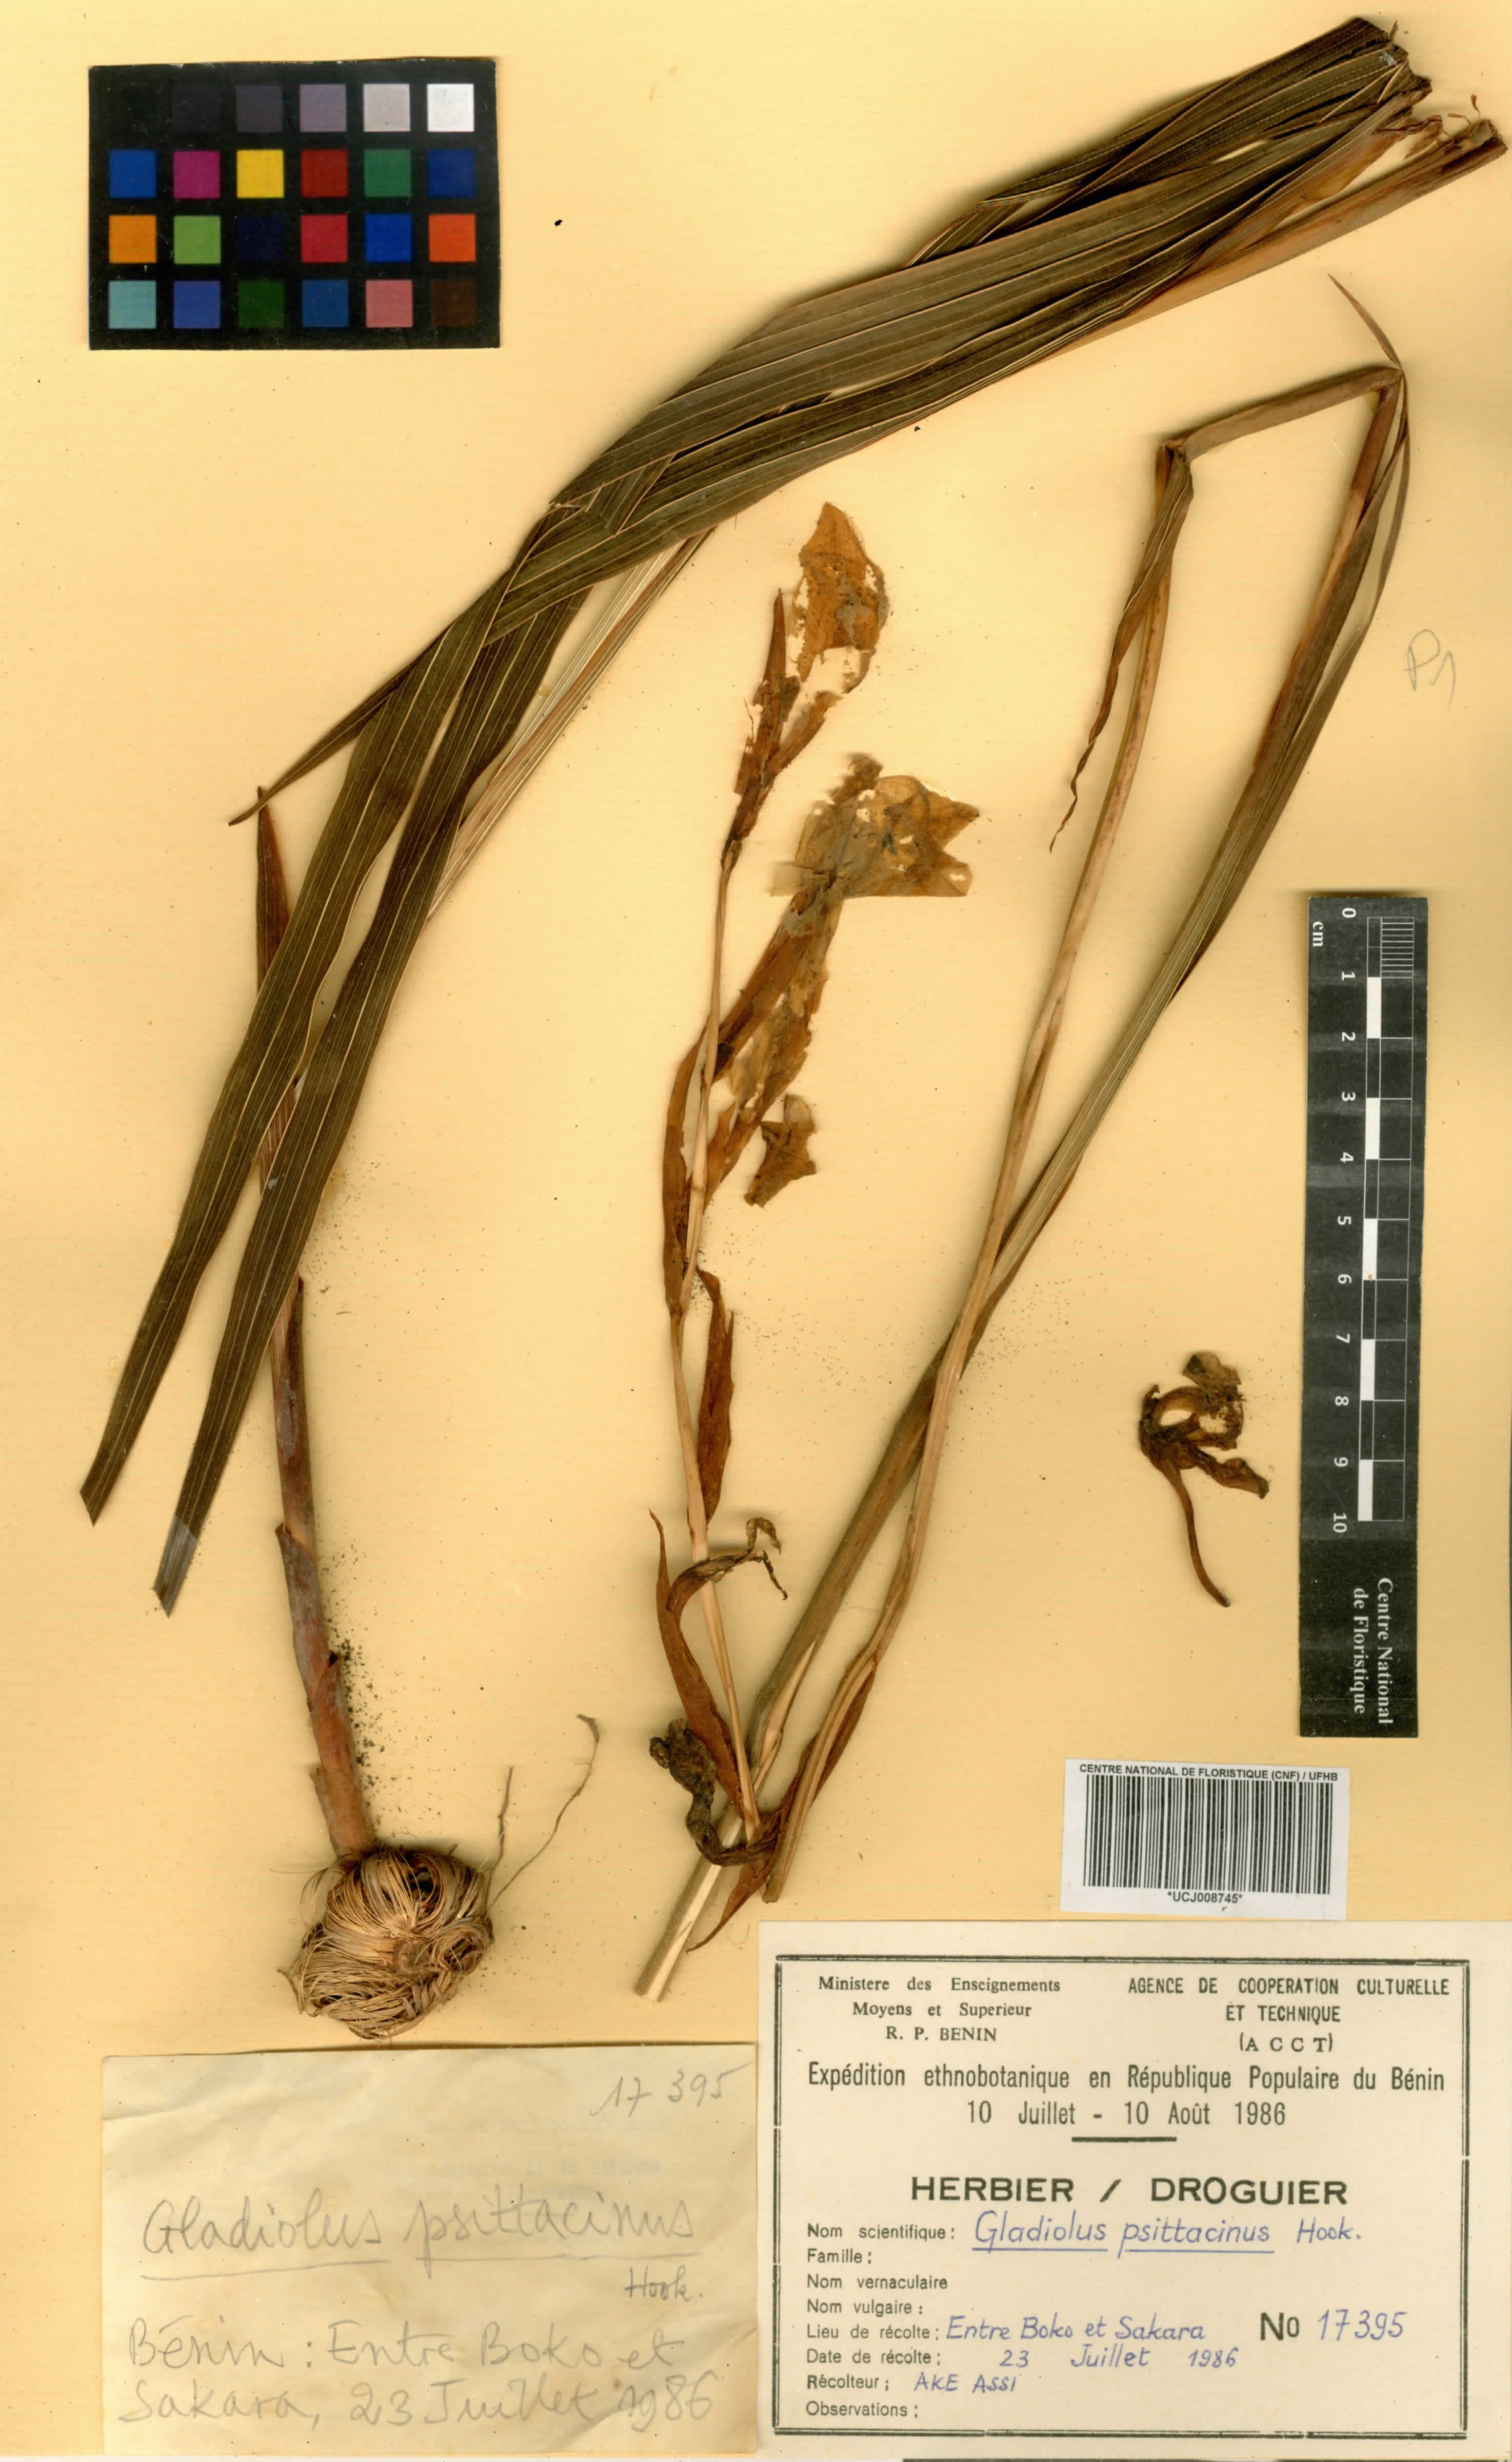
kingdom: Plantae
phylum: Tracheophyta
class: Liliopsida
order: Asparagales
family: Iridaceae
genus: Gladiolus
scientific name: Gladiolus dalenii
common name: Cornflag
